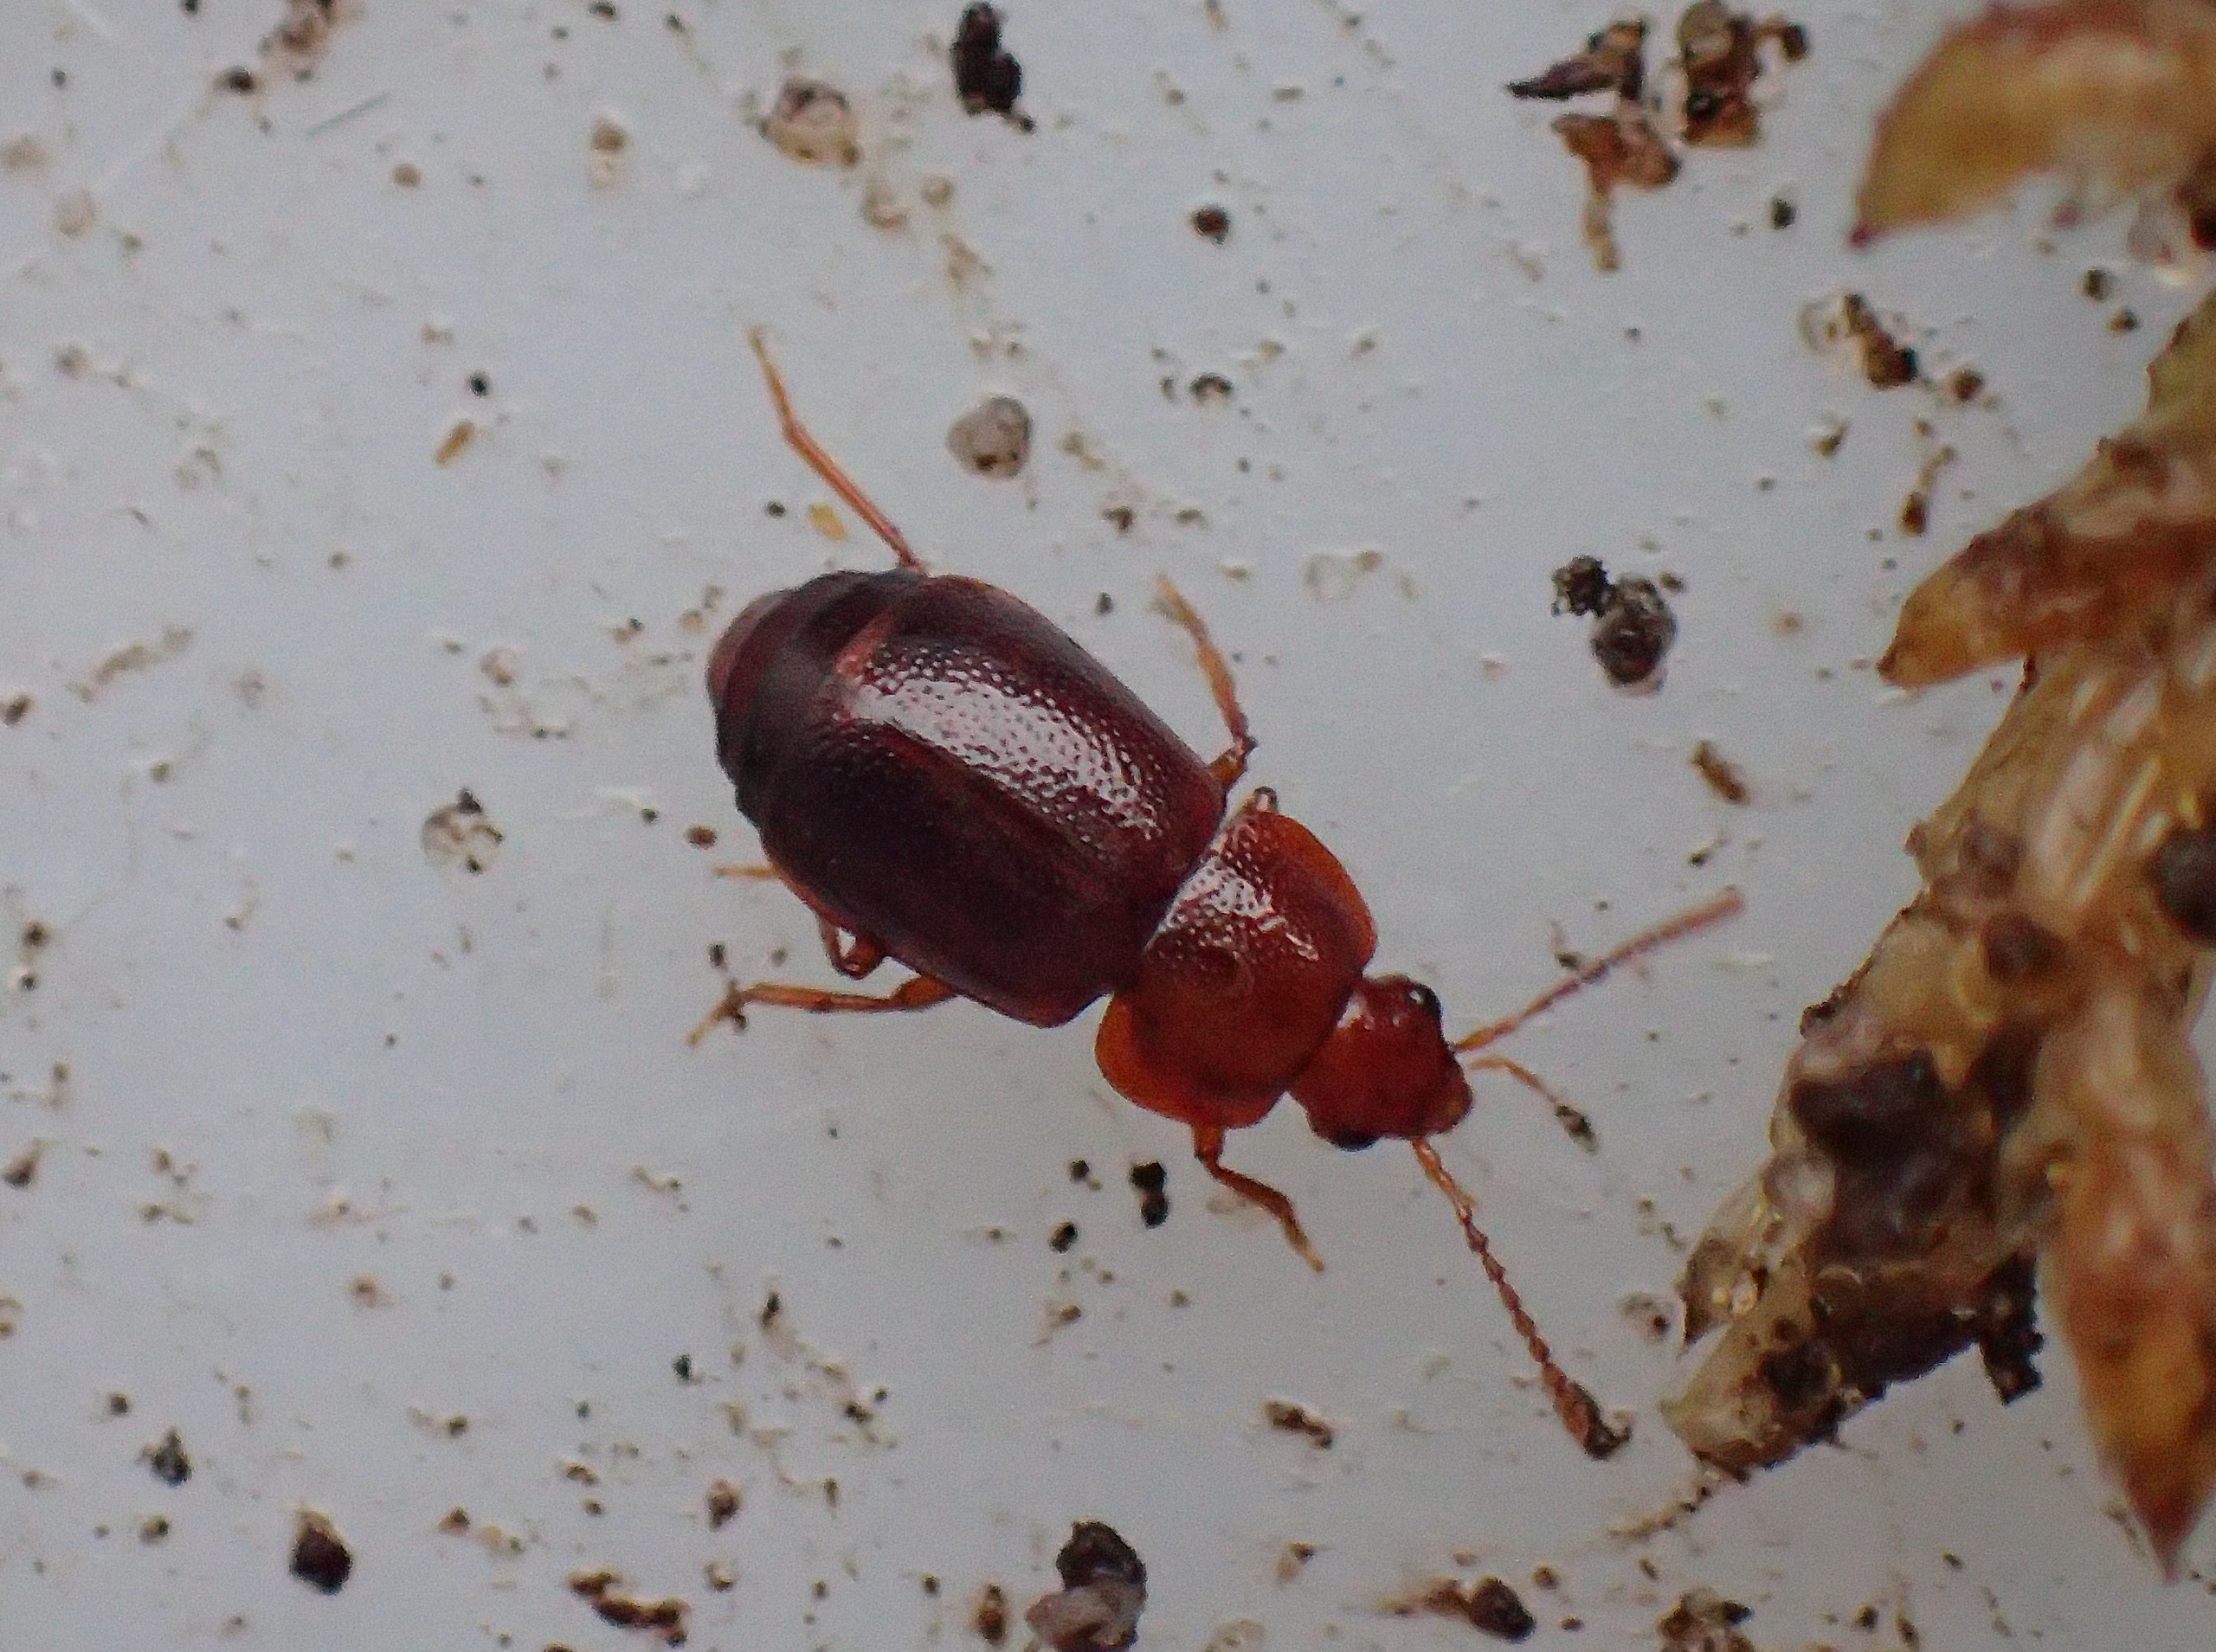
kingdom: Animalia
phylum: Arthropoda
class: Insecta
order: Coleoptera
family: Staphylinidae
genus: Olophrum
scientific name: Olophrum piceum
